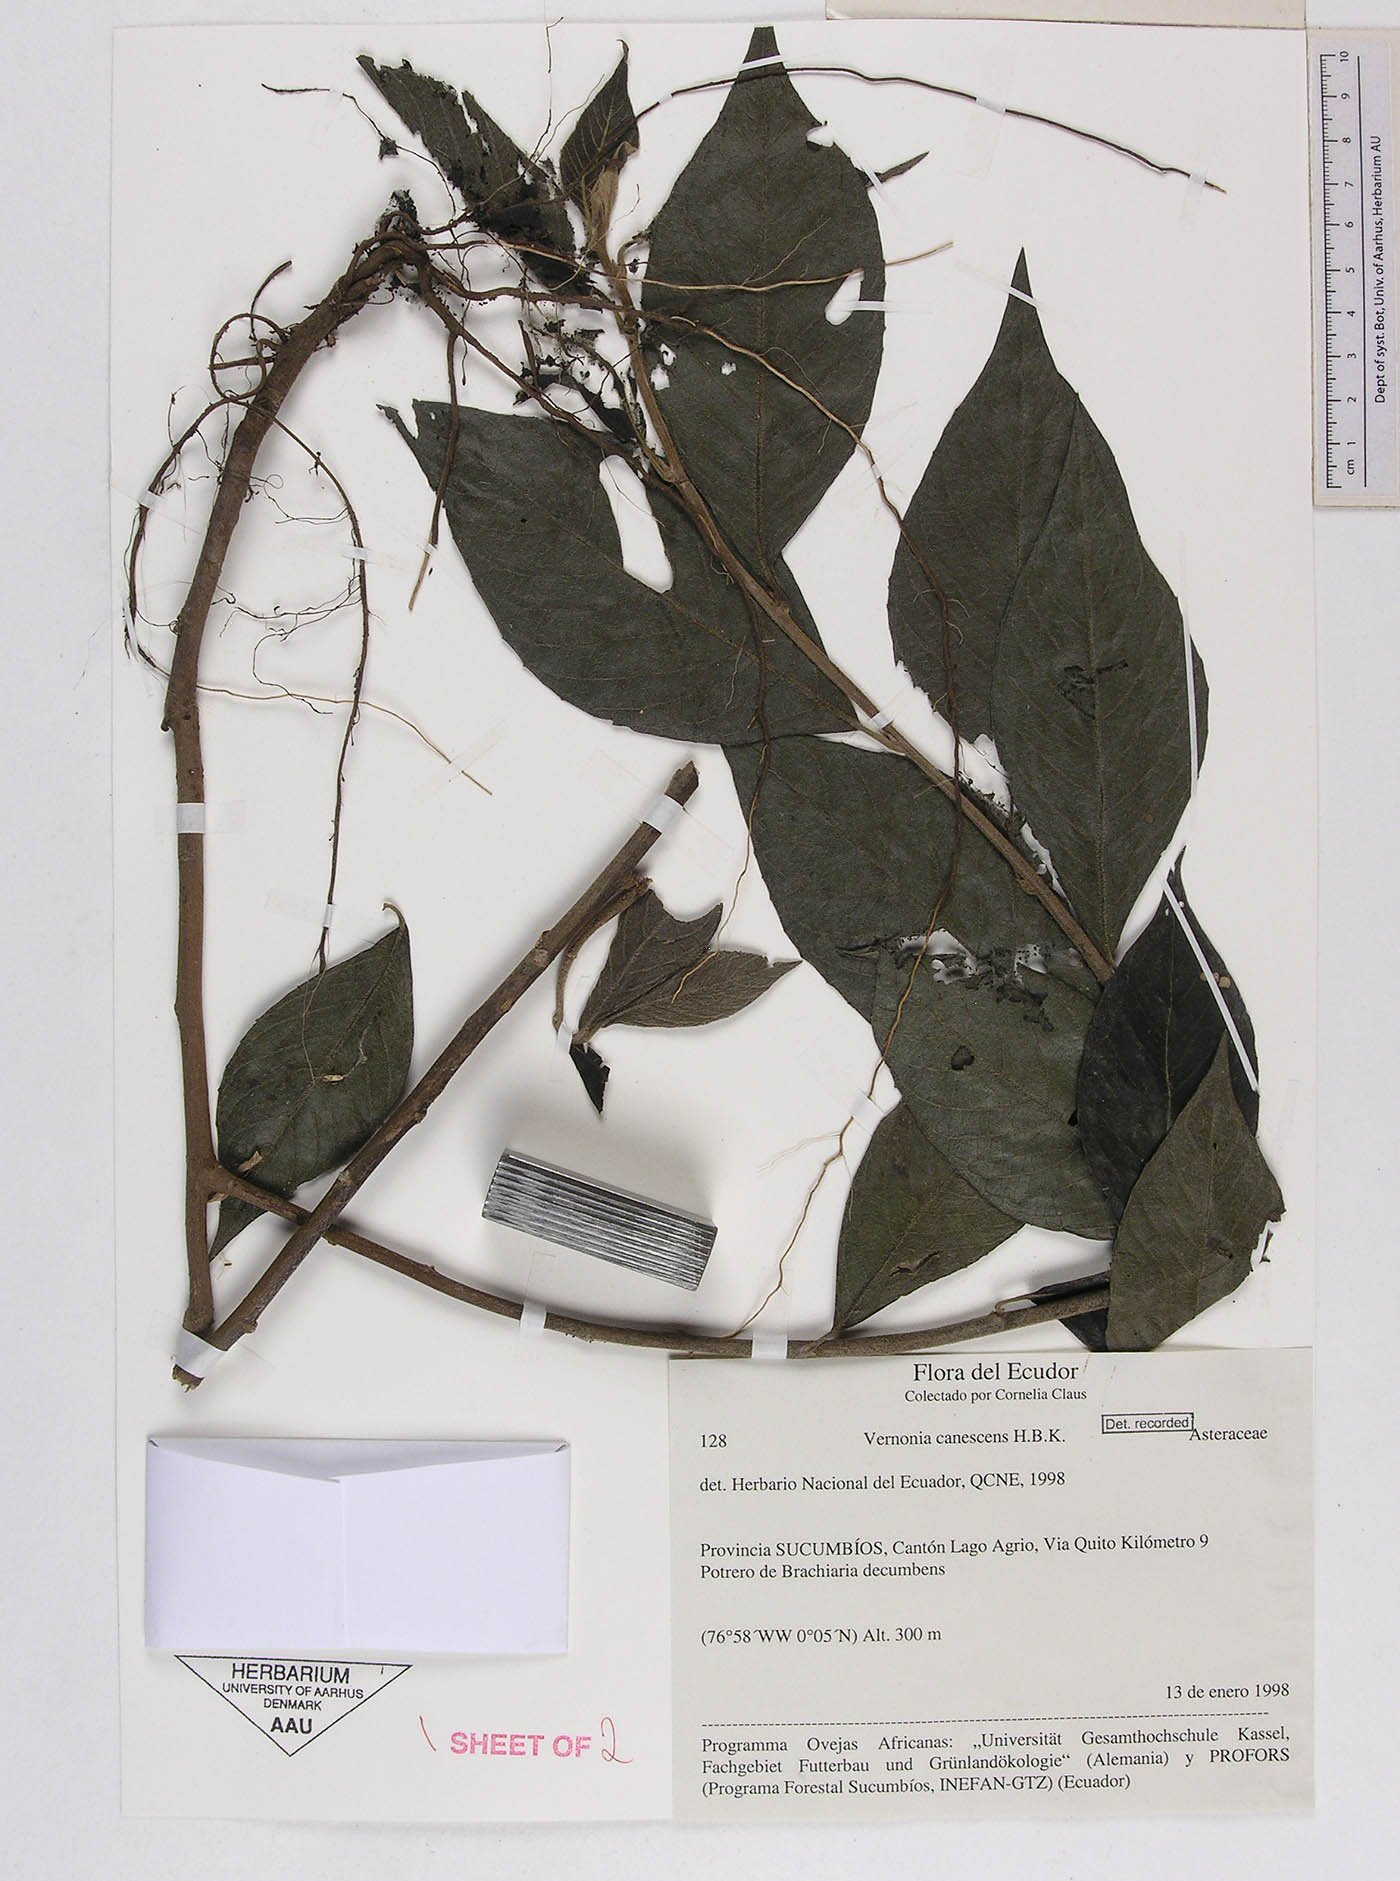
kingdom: Plantae
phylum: Tracheophyta
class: Magnoliopsida
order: Asterales
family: Asteraceae
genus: Lepidaploa
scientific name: Lepidaploa canescens
